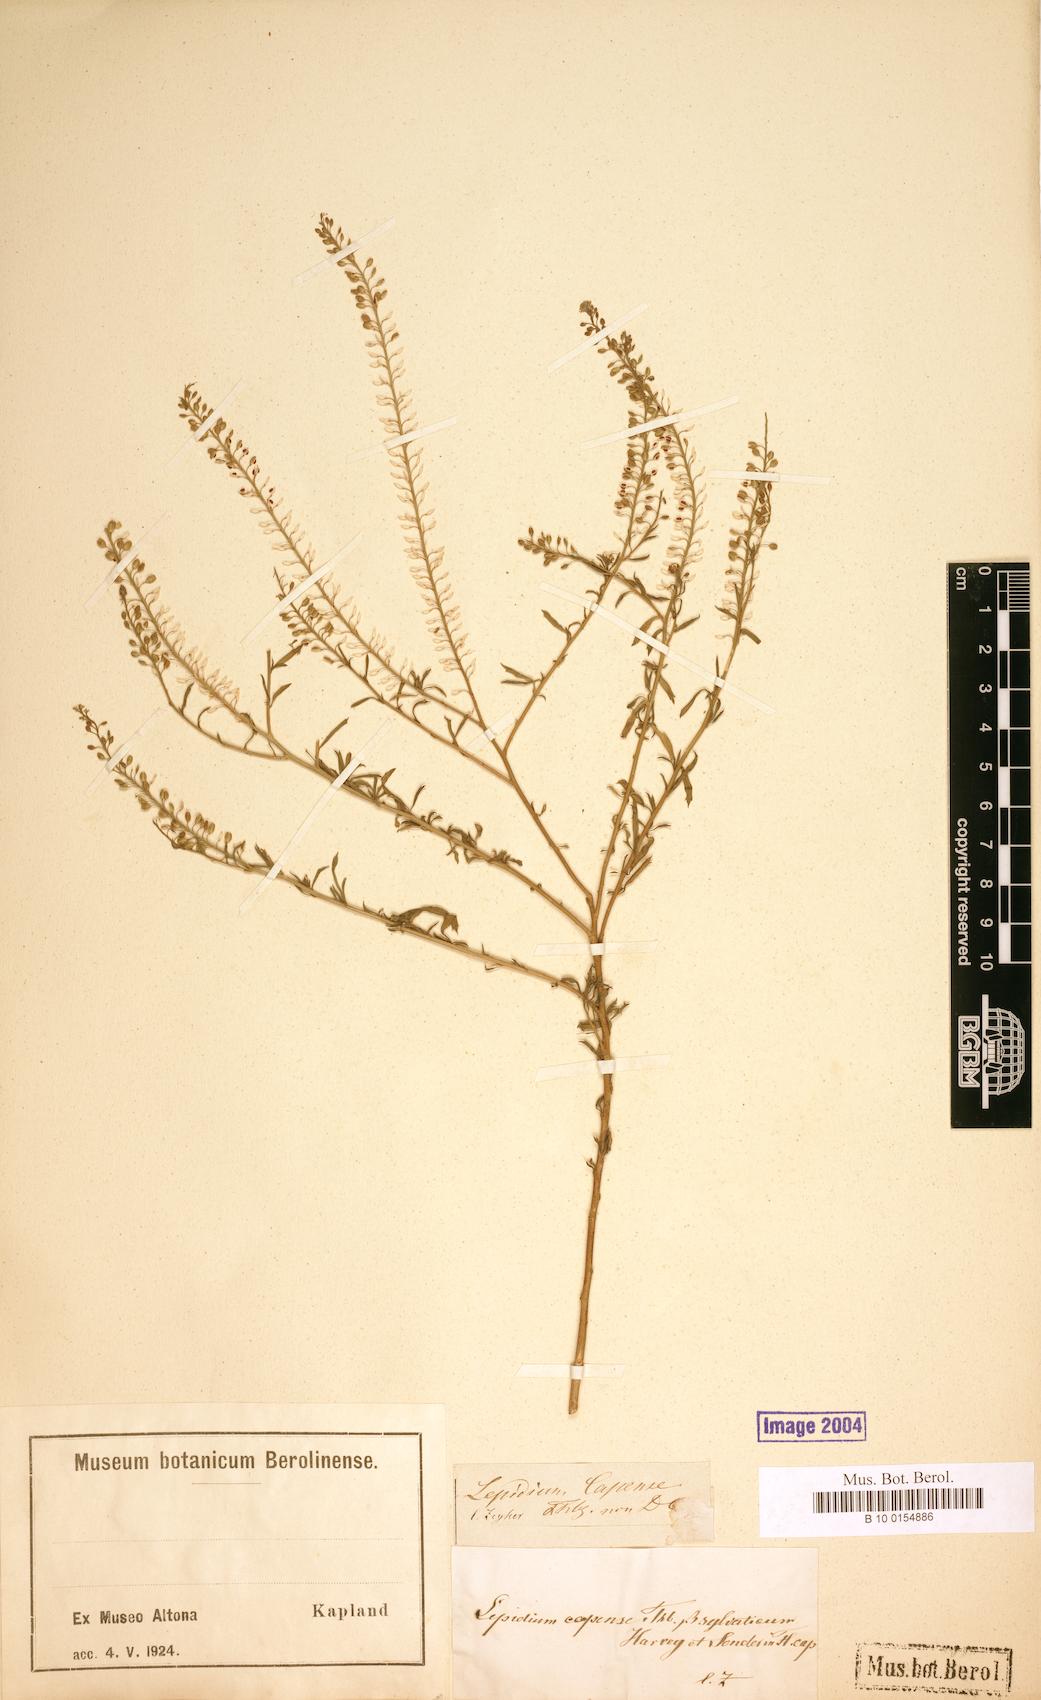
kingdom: Plantae
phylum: Tracheophyta
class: Magnoliopsida
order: Brassicales
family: Brassicaceae
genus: Lepidium
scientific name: Lepidium capense
